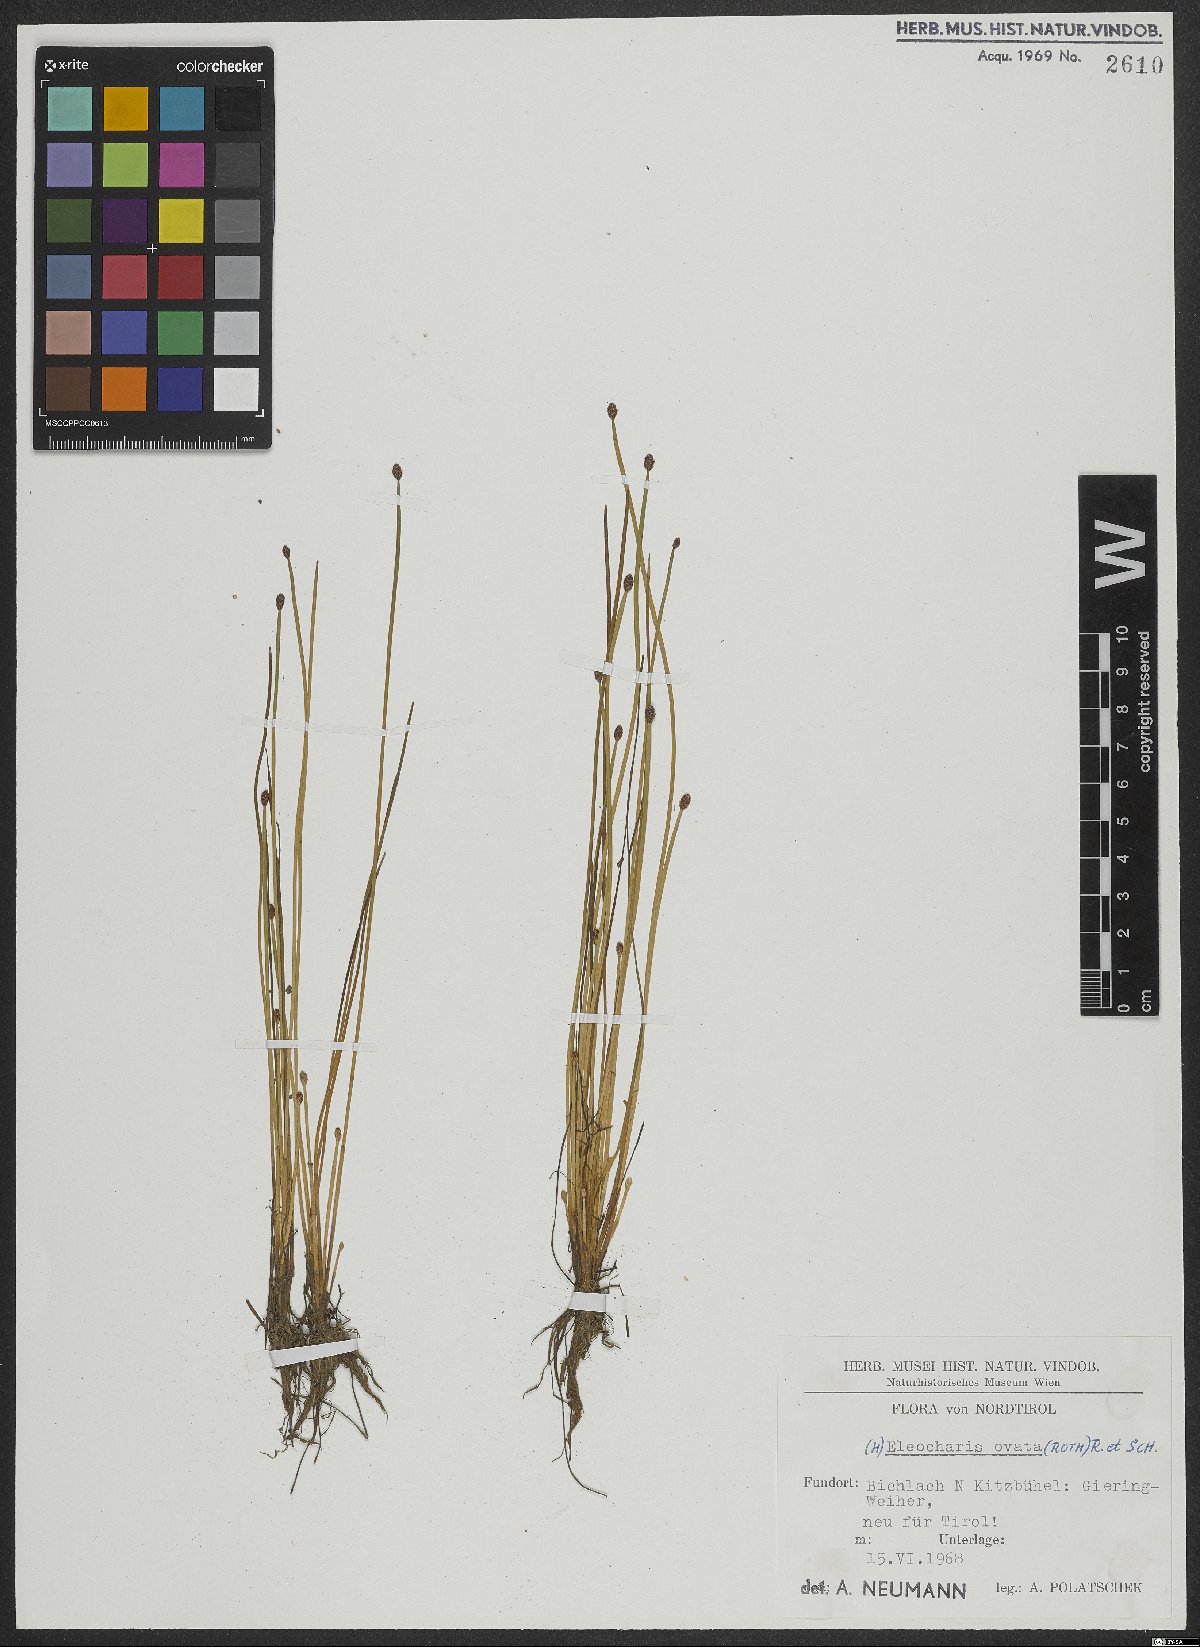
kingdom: Plantae
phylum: Tracheophyta
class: Liliopsida
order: Poales
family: Cyperaceae
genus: Eleocharis
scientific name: Eleocharis ovata
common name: Oval spike-rush
